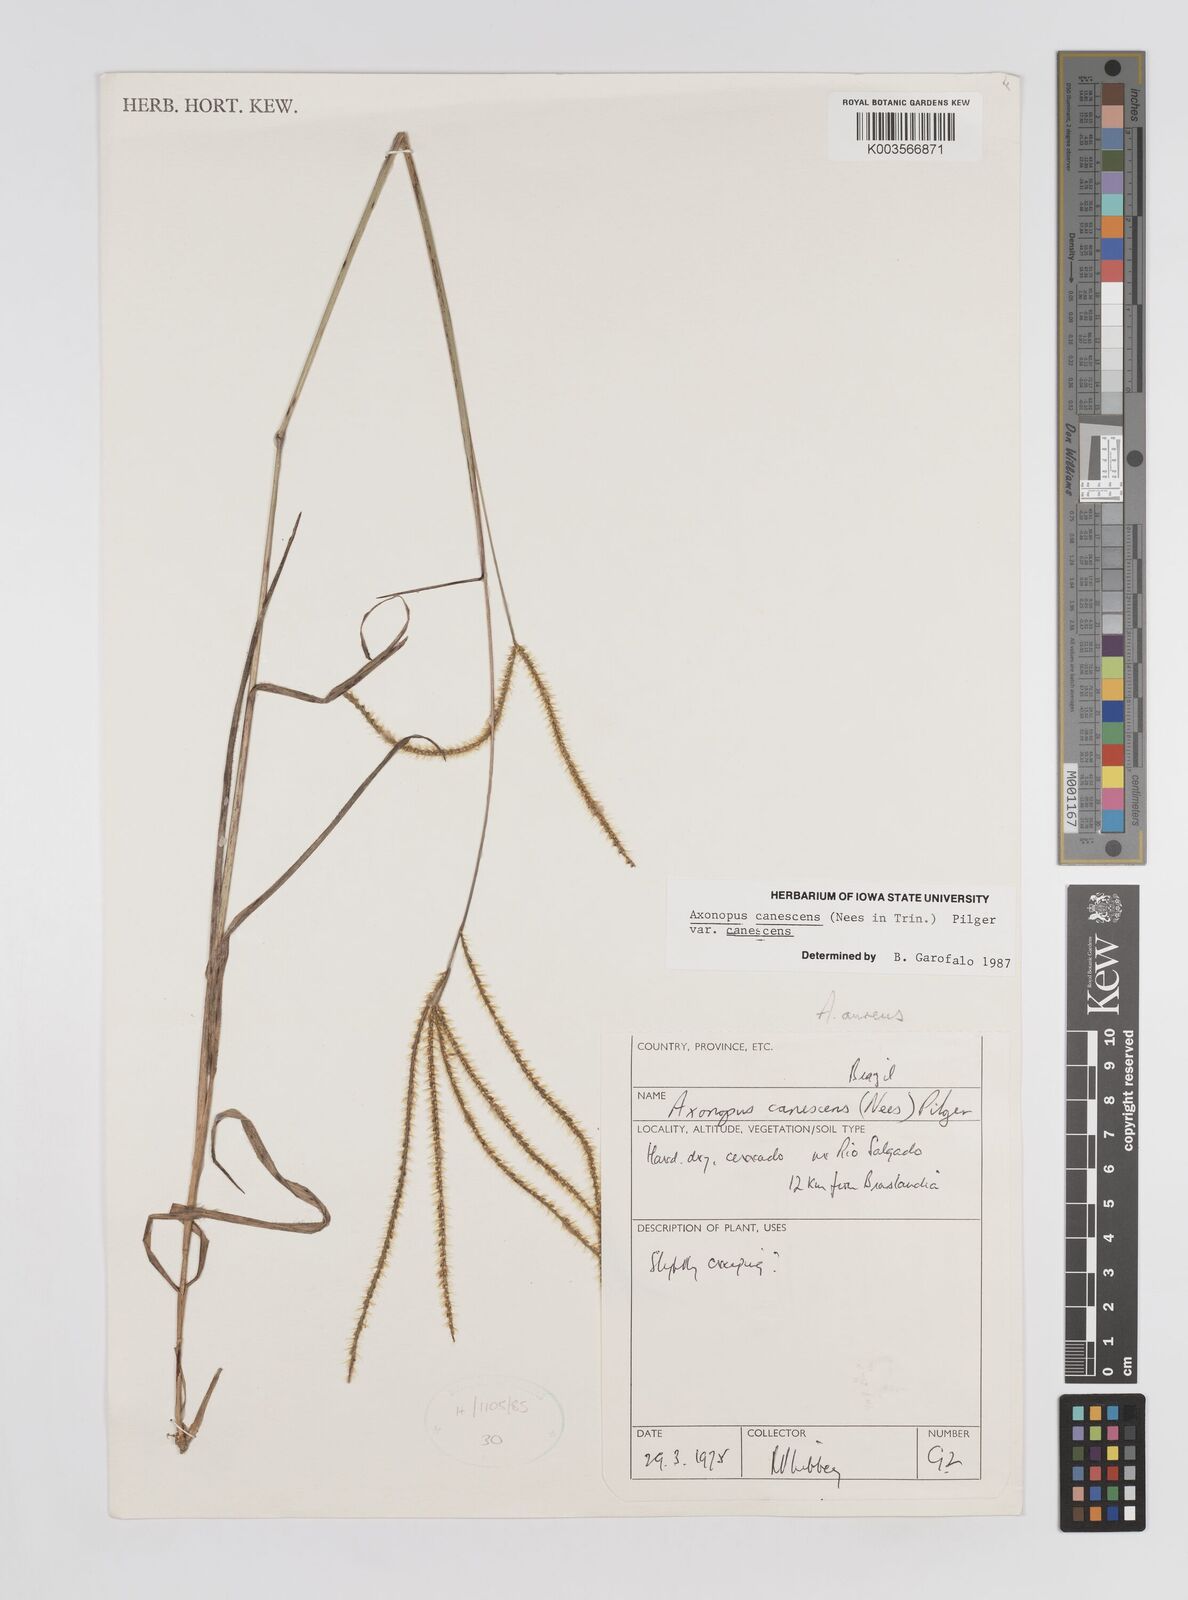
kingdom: Plantae
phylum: Tracheophyta
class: Liliopsida
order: Poales
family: Poaceae
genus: Axonopus
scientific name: Axonopus aureus
